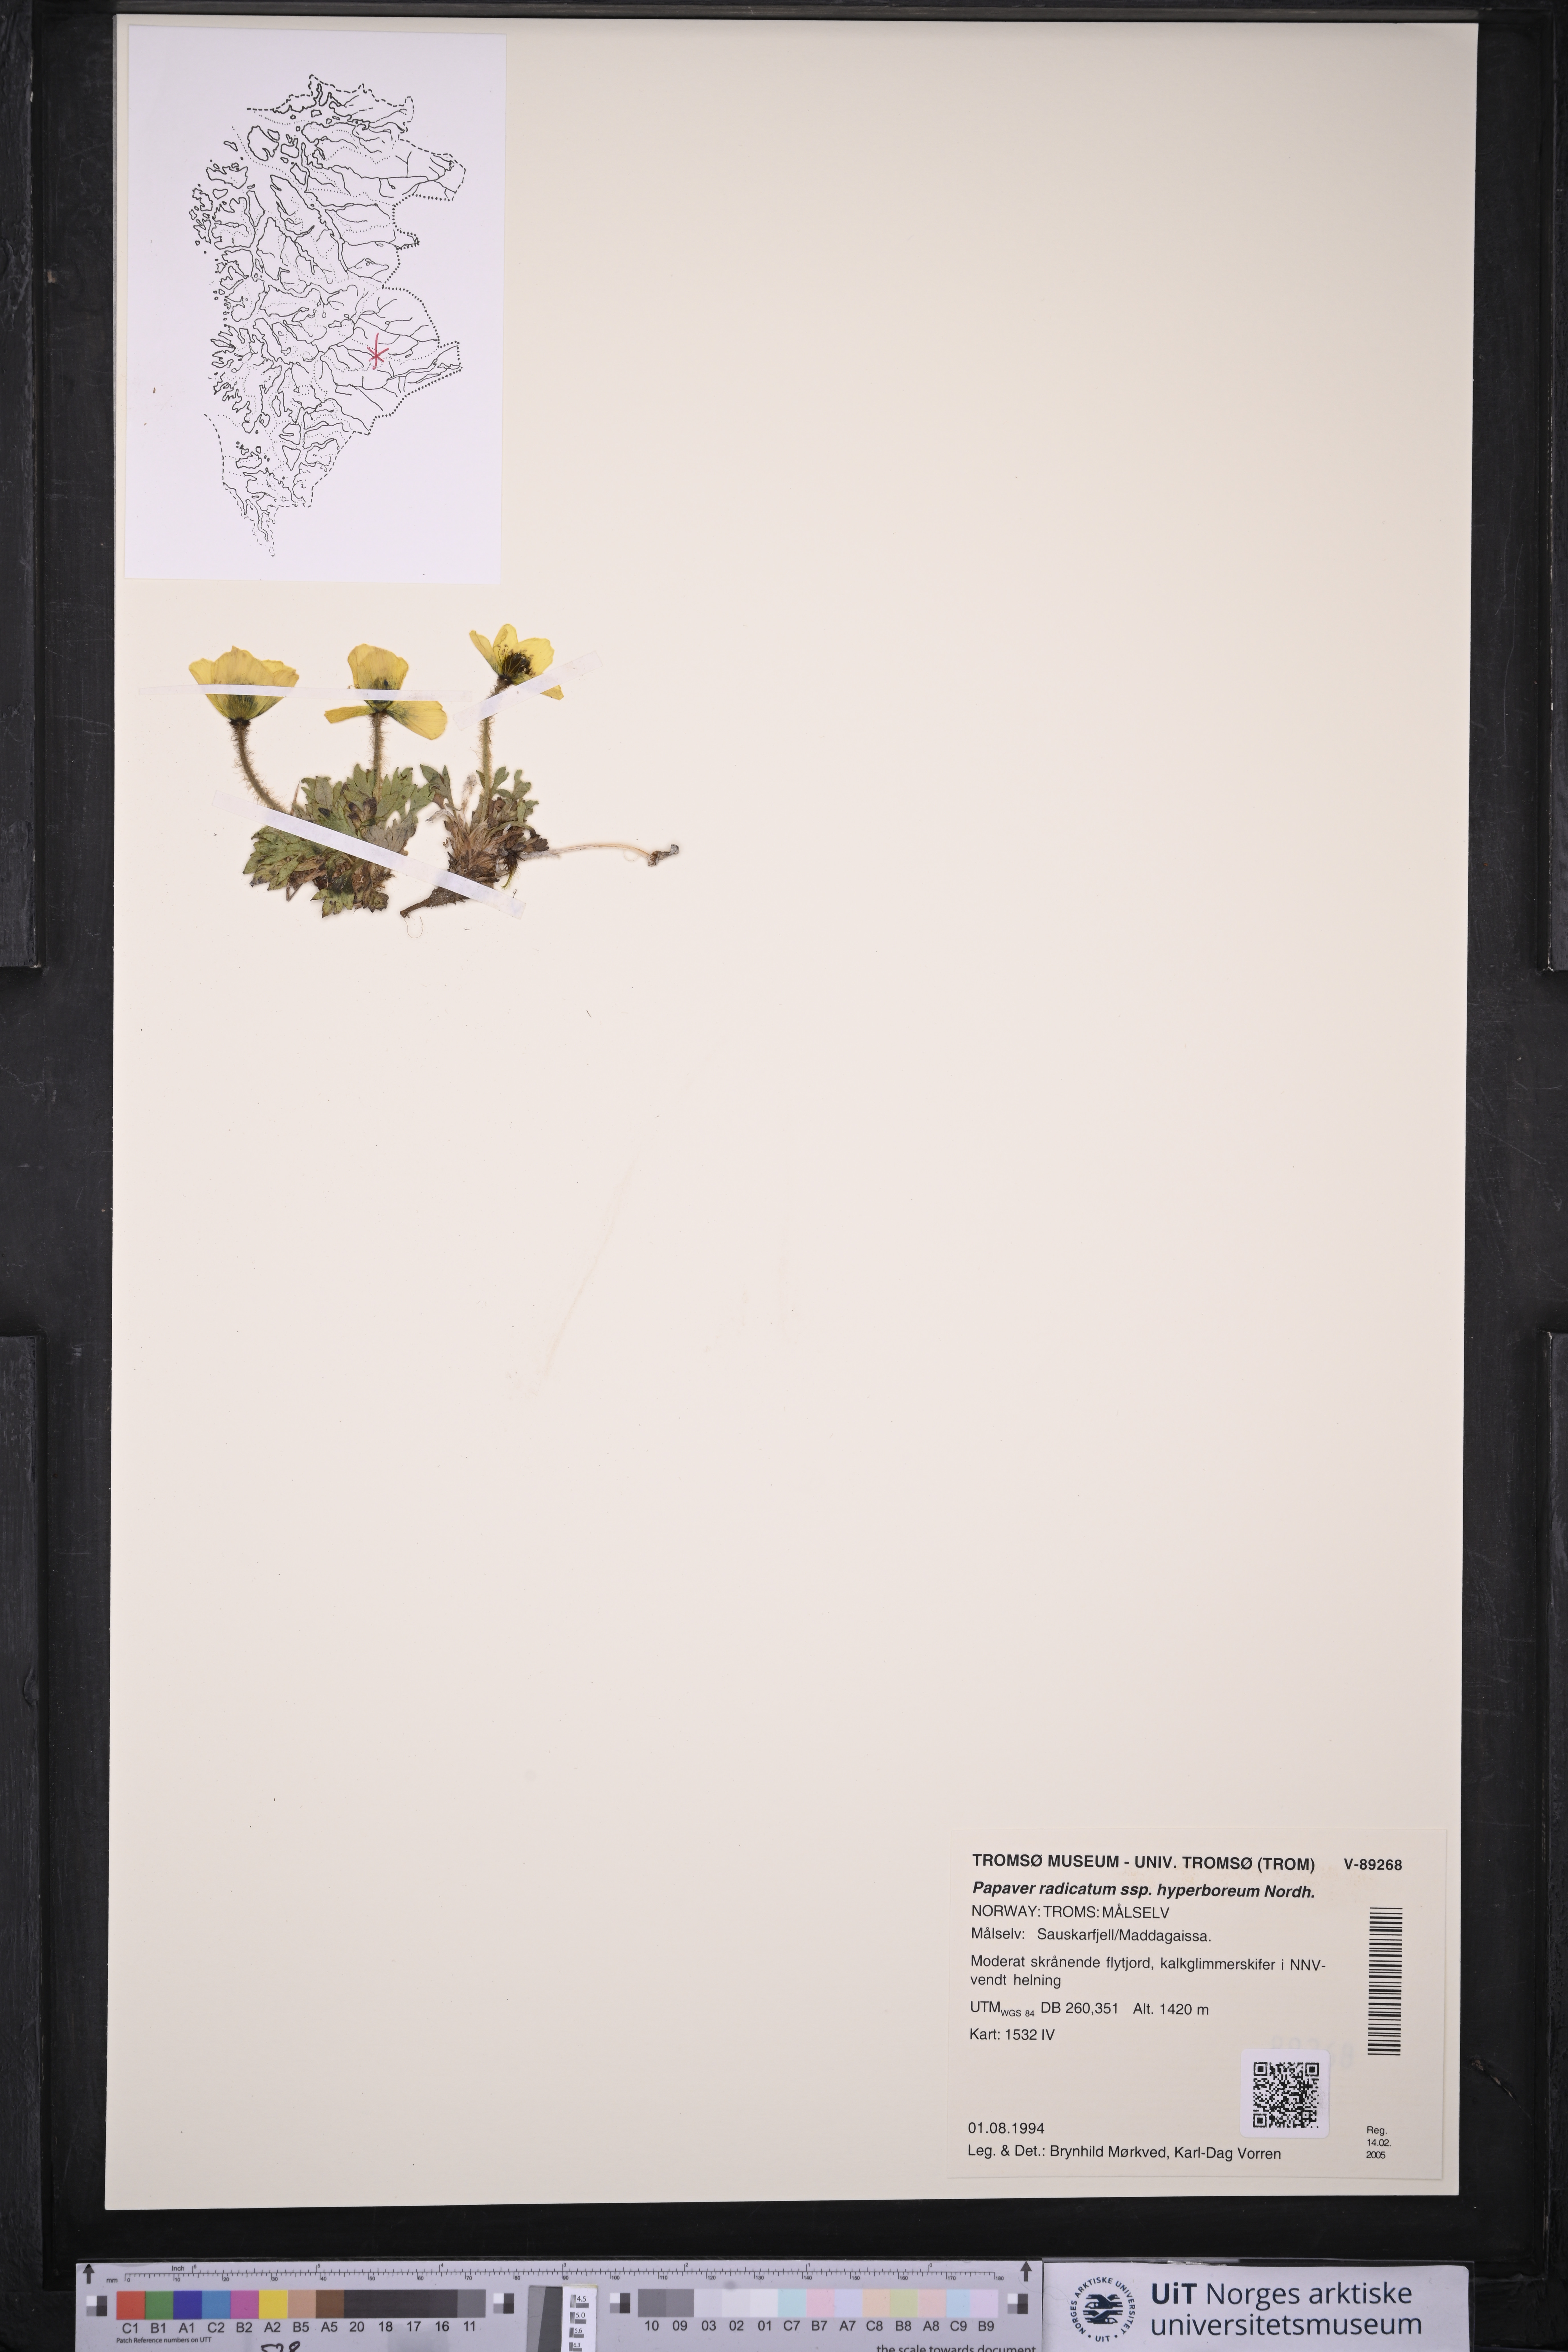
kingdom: Plantae
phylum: Tracheophyta
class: Magnoliopsida
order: Ranunculales
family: Papaveraceae
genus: Papaver
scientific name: Papaver radicatum
